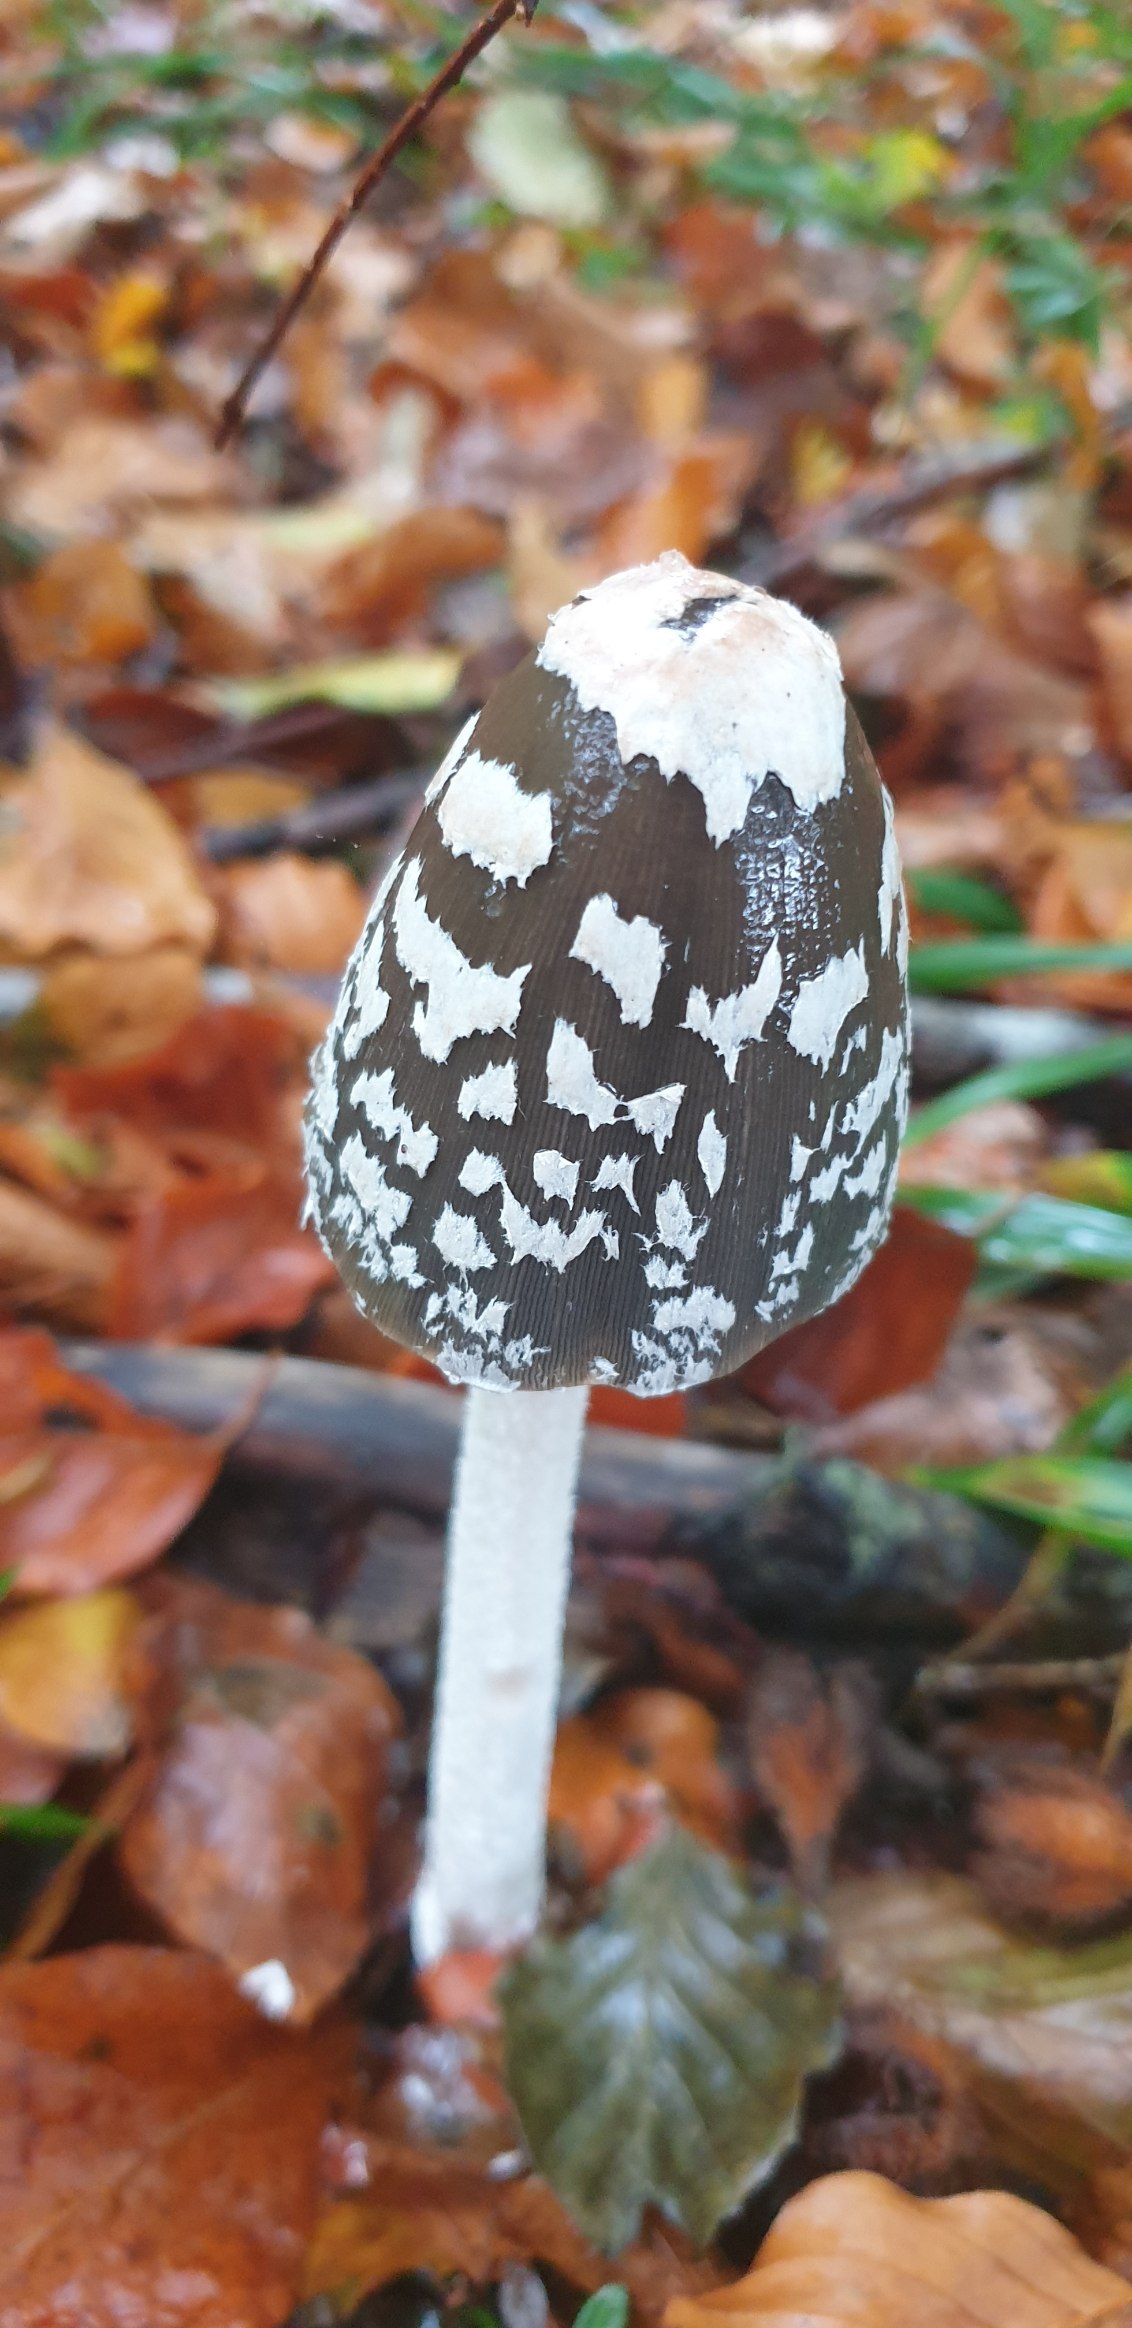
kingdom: Fungi
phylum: Basidiomycota
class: Agaricomycetes
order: Agaricales
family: Psathyrellaceae
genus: Coprinopsis
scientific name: Coprinopsis picacea
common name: Skade-blækhat
